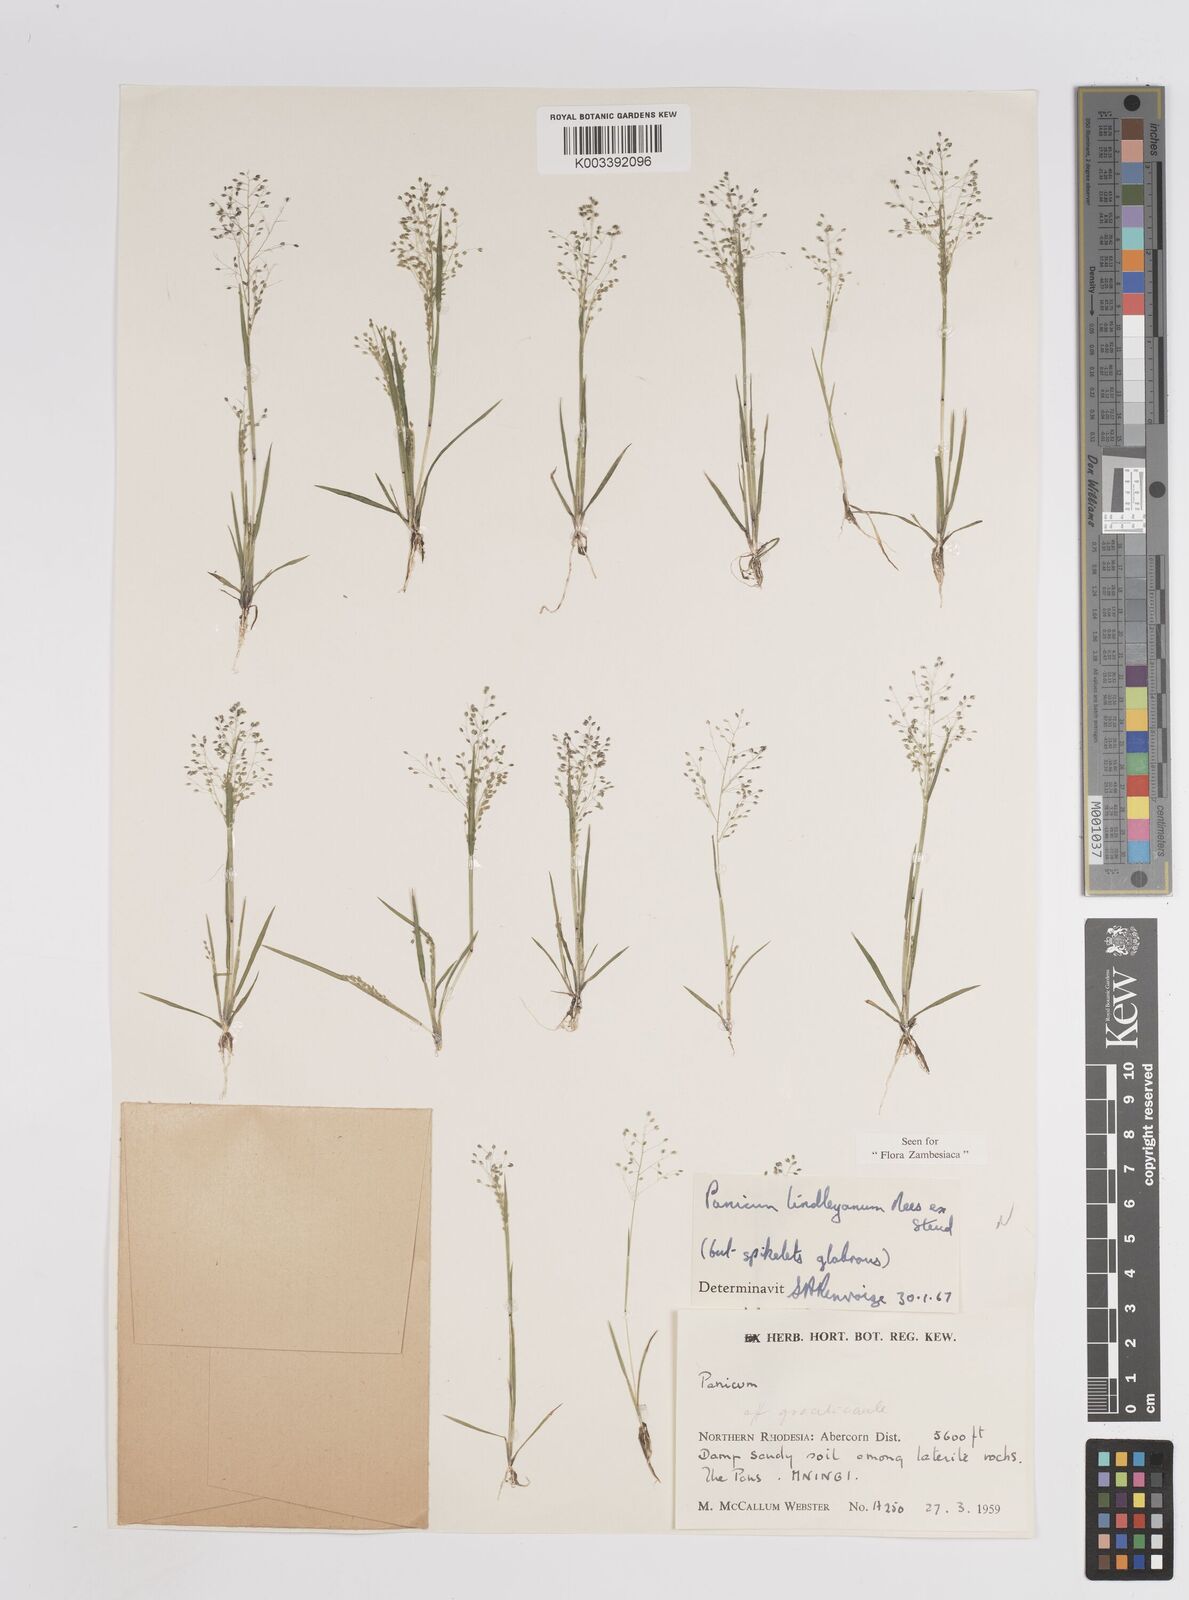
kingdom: Plantae
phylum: Tracheophyta
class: Liliopsida
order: Poales
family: Poaceae
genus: Trichanthecium
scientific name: Trichanthecium tenellum
